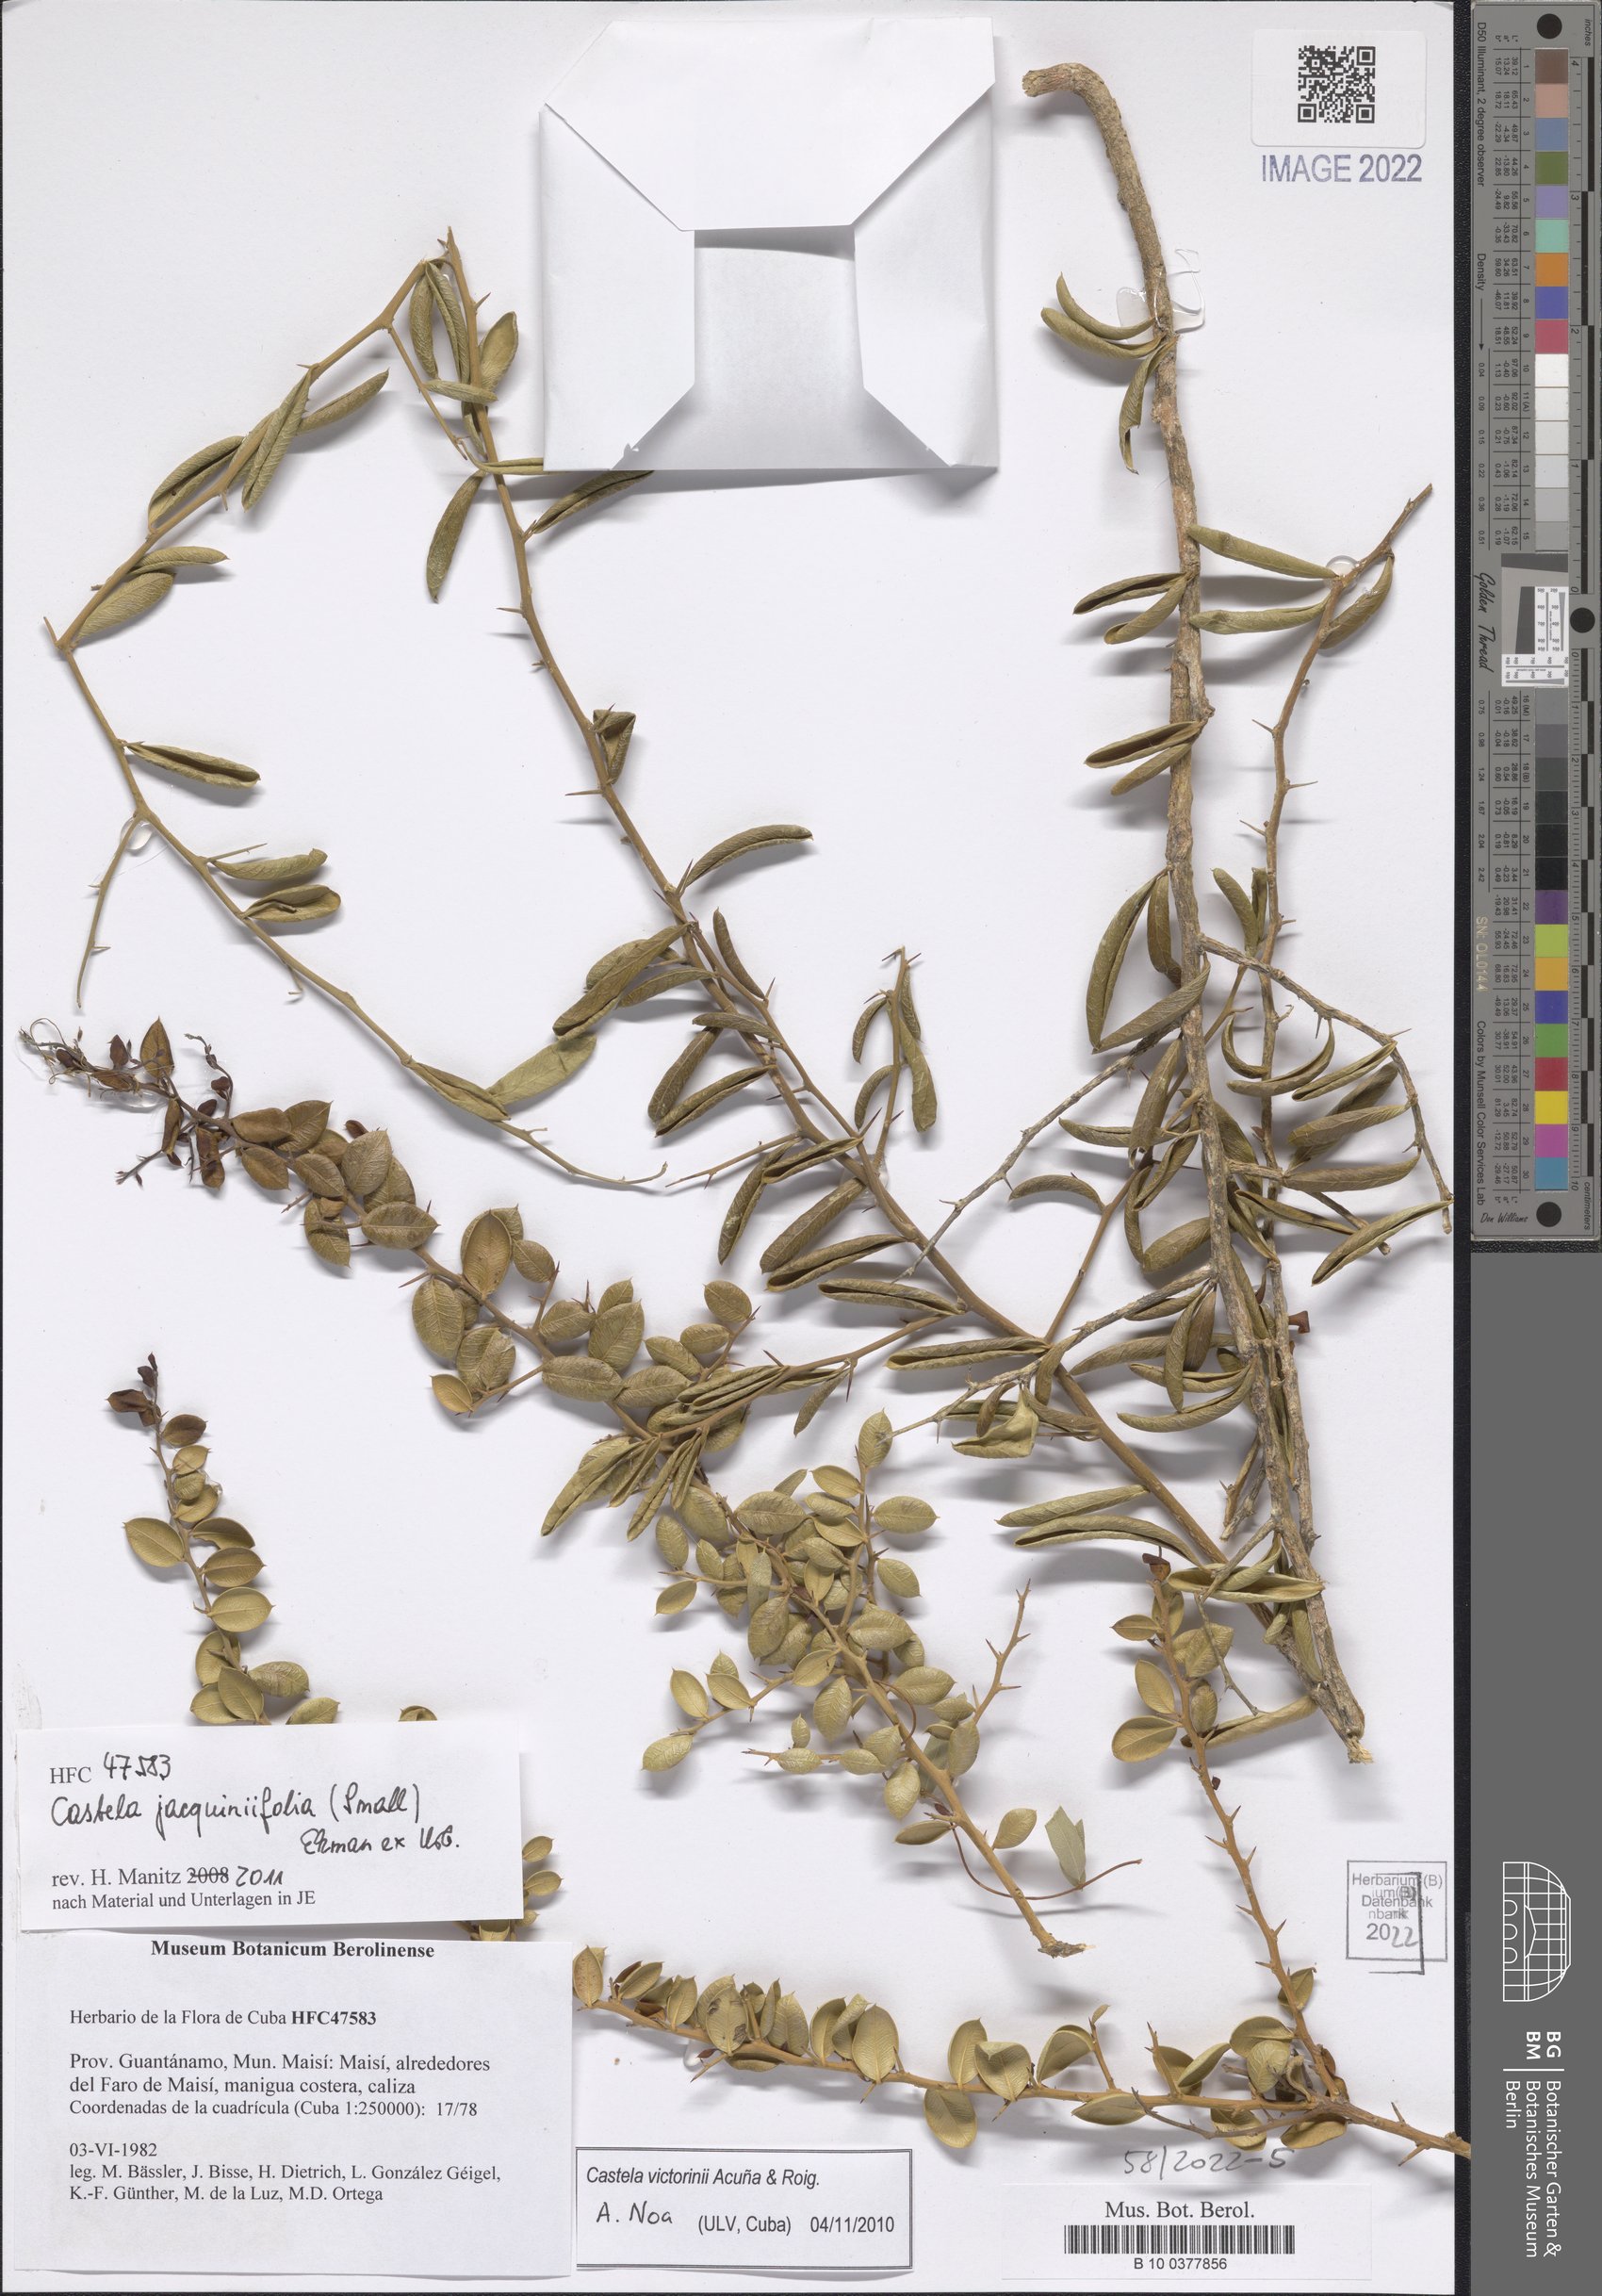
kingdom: Plantae
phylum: Tracheophyta
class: Magnoliopsida
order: Sapindales
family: Simaroubaceae
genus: Castela
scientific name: Castela jacquiniifolia
